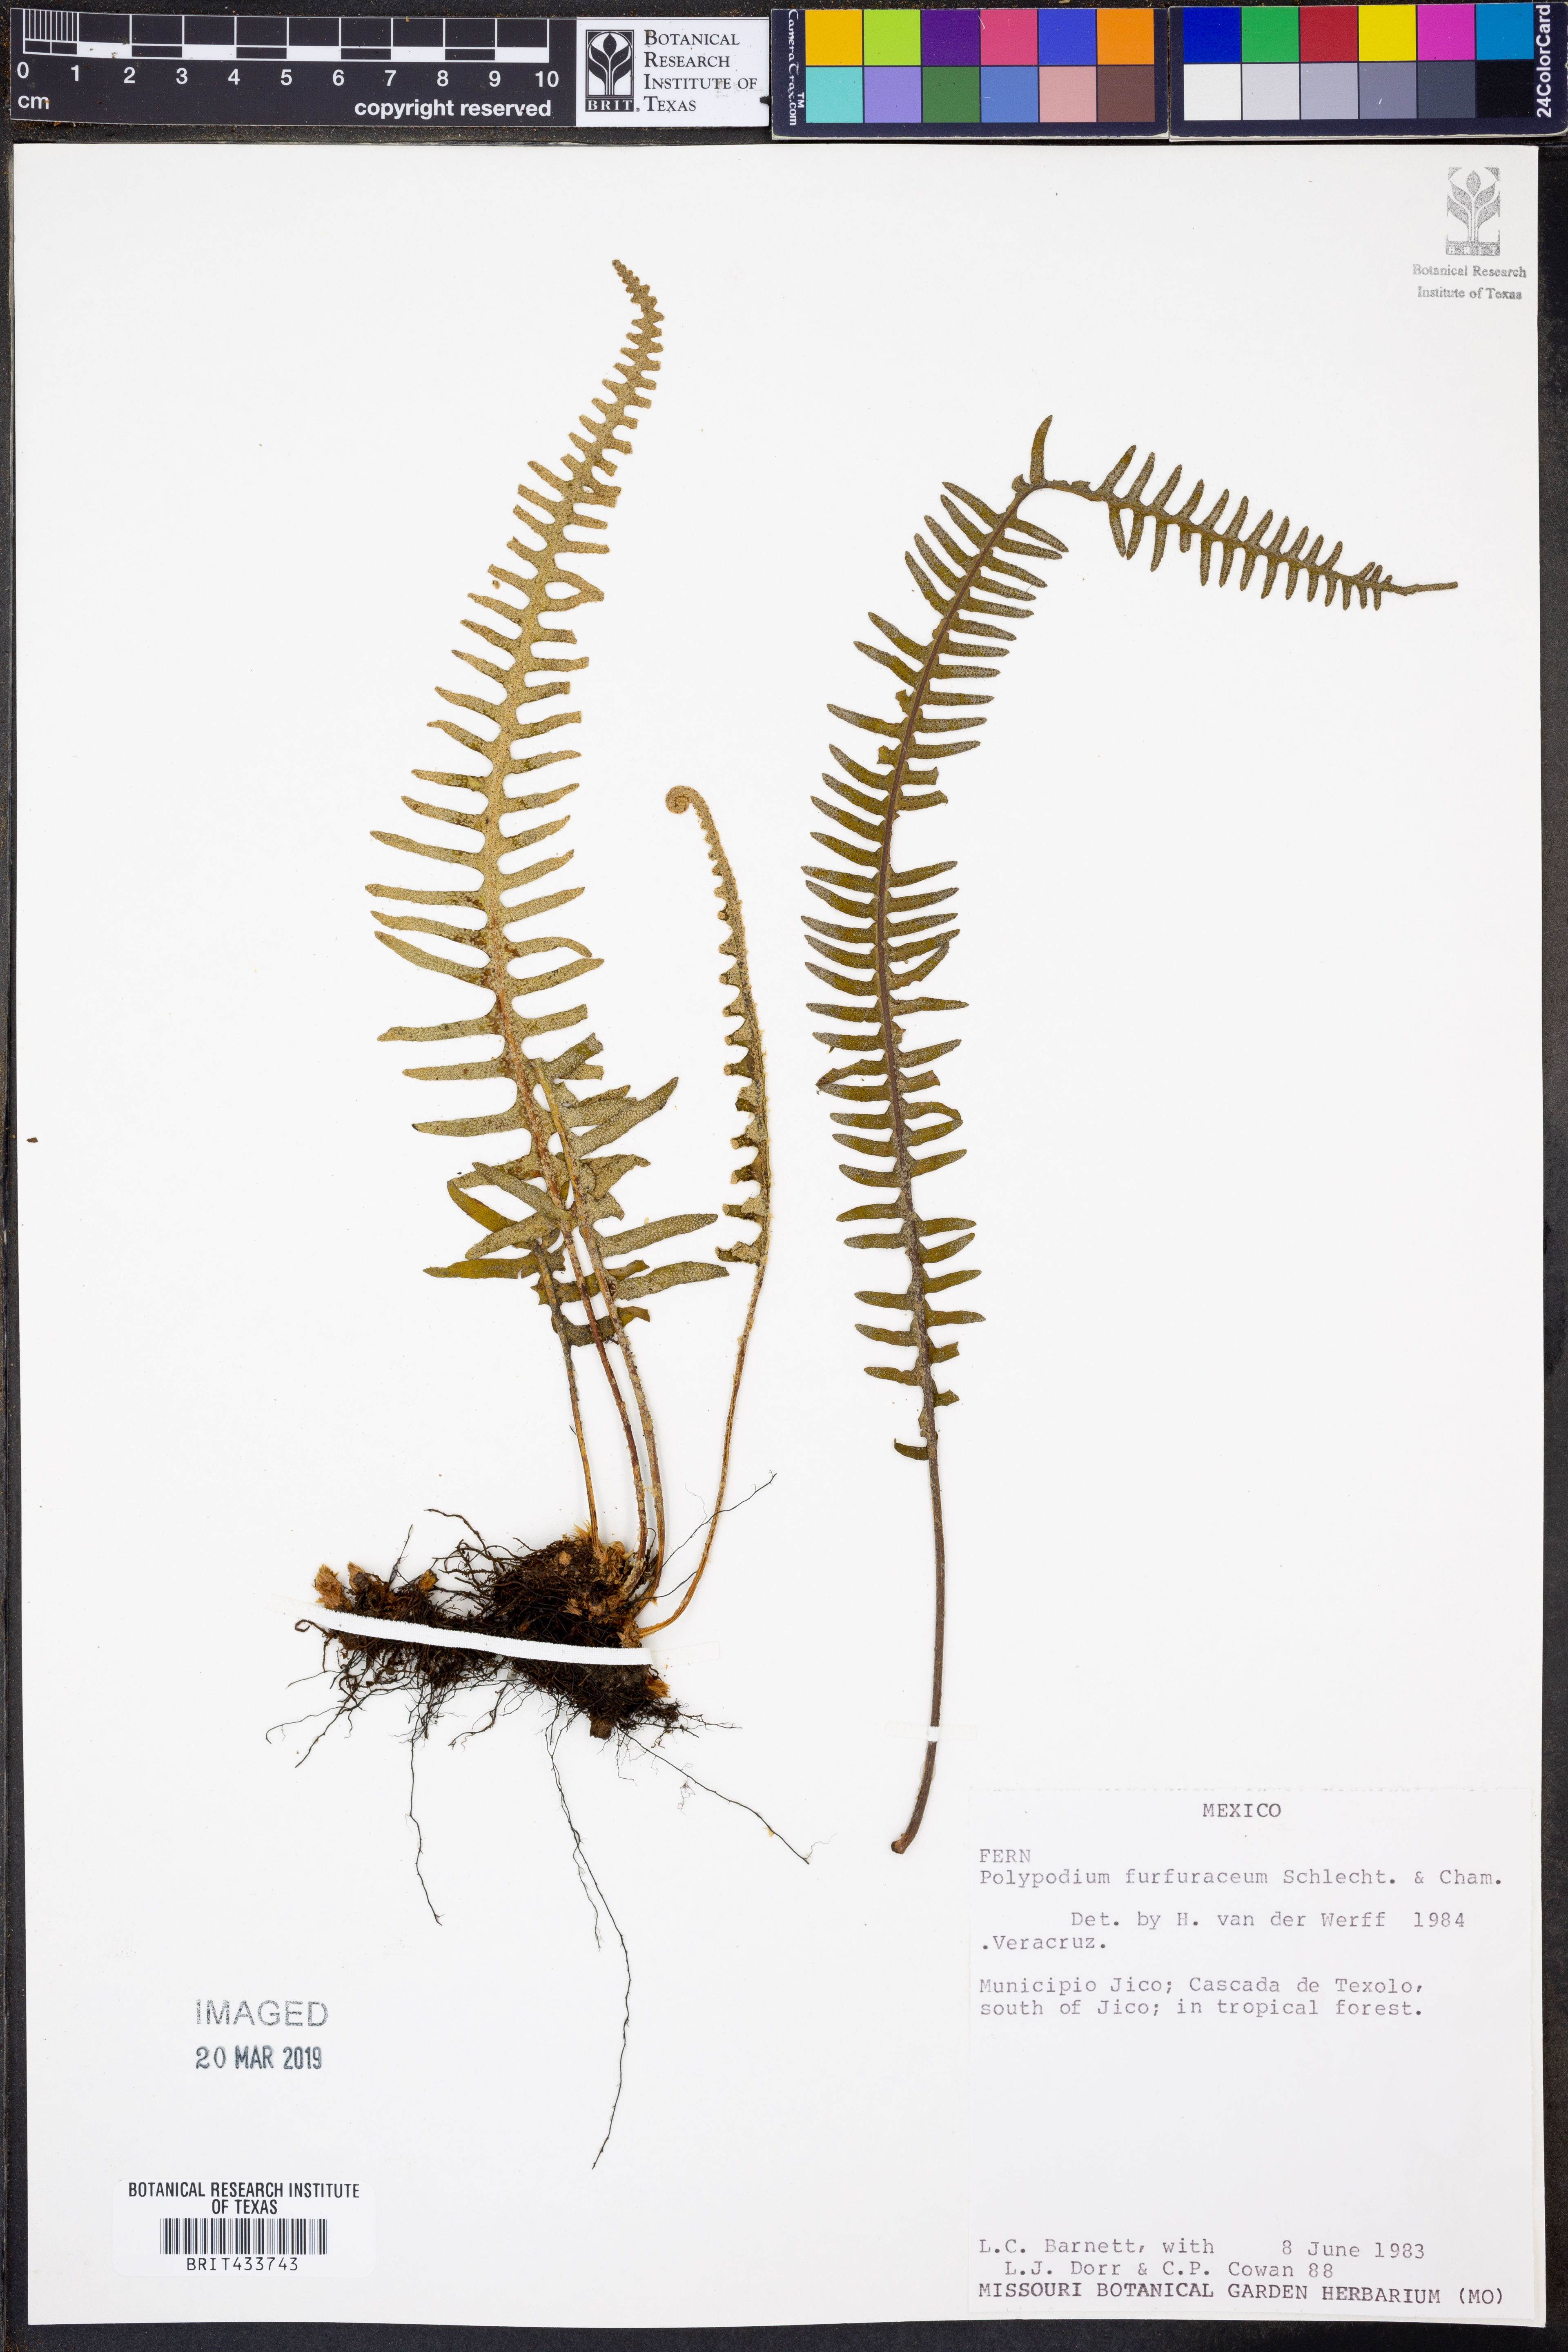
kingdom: Plantae
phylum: Tracheophyta
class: Polypodiopsida
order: Polypodiales
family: Polypodiaceae
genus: Pyrrosia
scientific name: Pyrrosia longifolia
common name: Long-leaved felt fern
